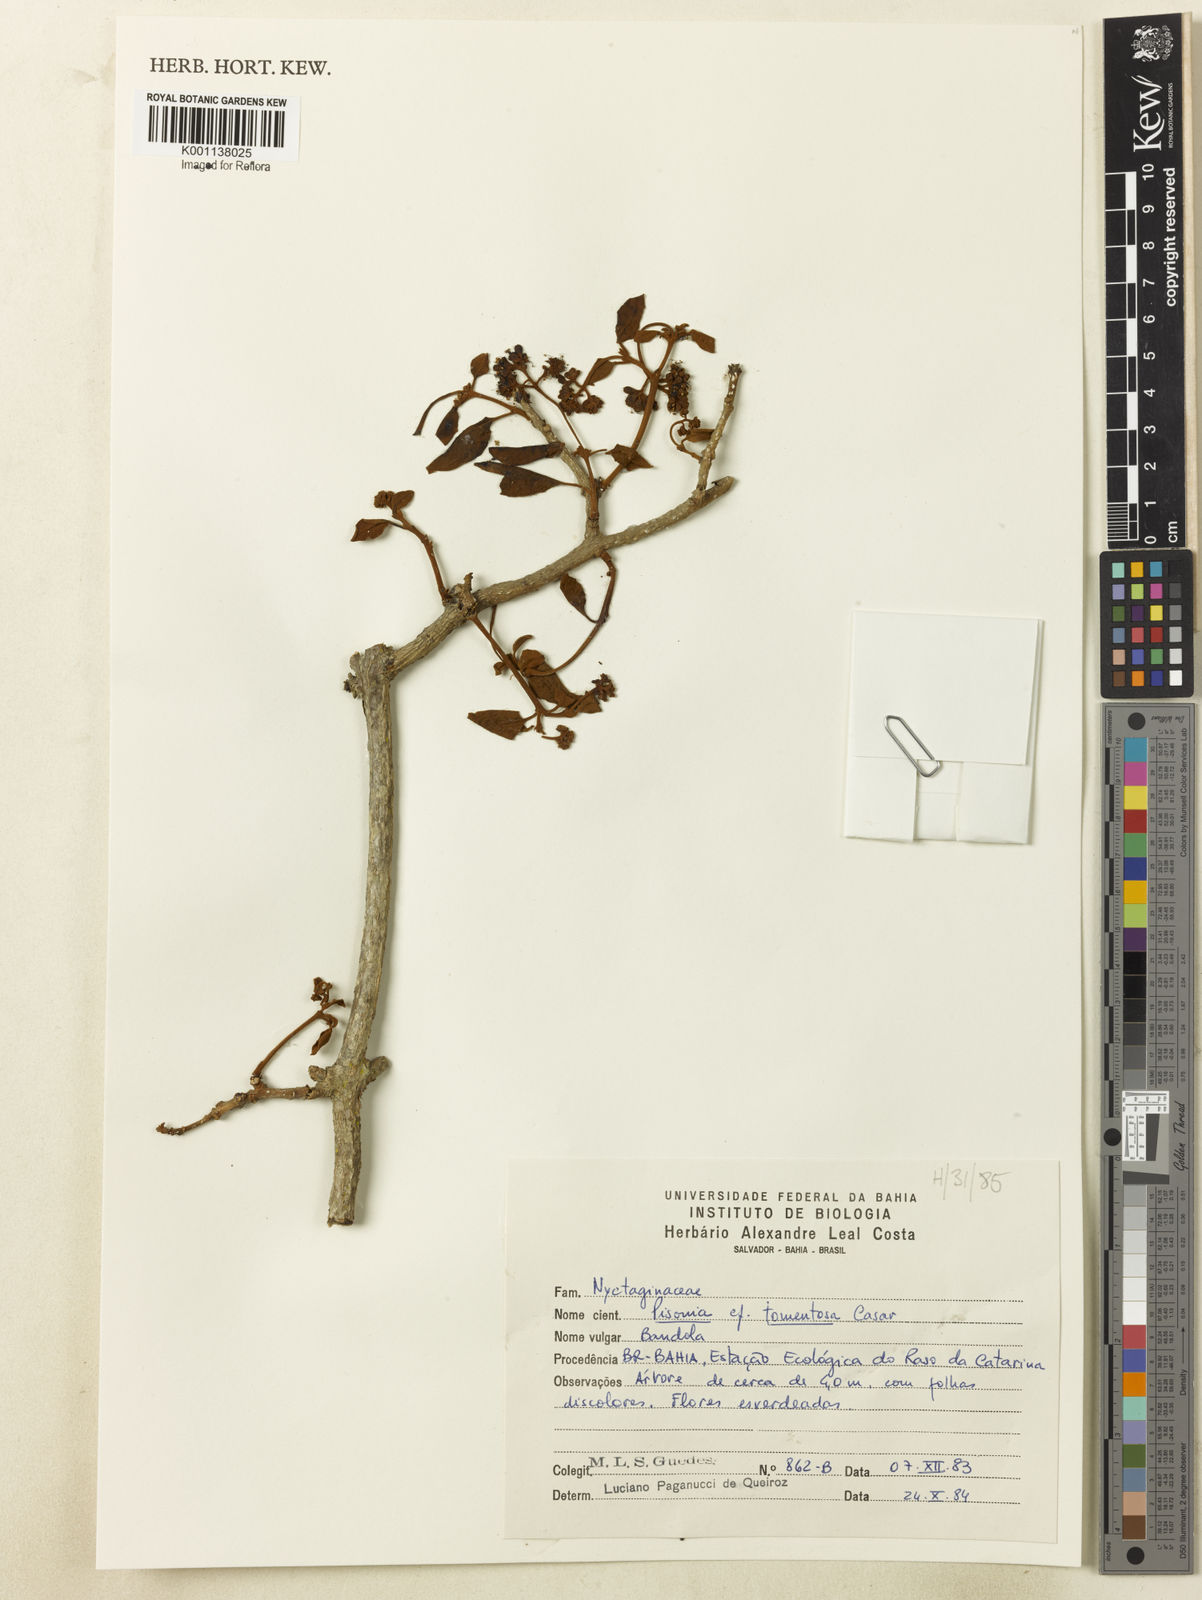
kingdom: Plantae
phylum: Tracheophyta
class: Magnoliopsida
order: Caryophyllales
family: Nyctaginaceae
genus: Neea
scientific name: Neea
